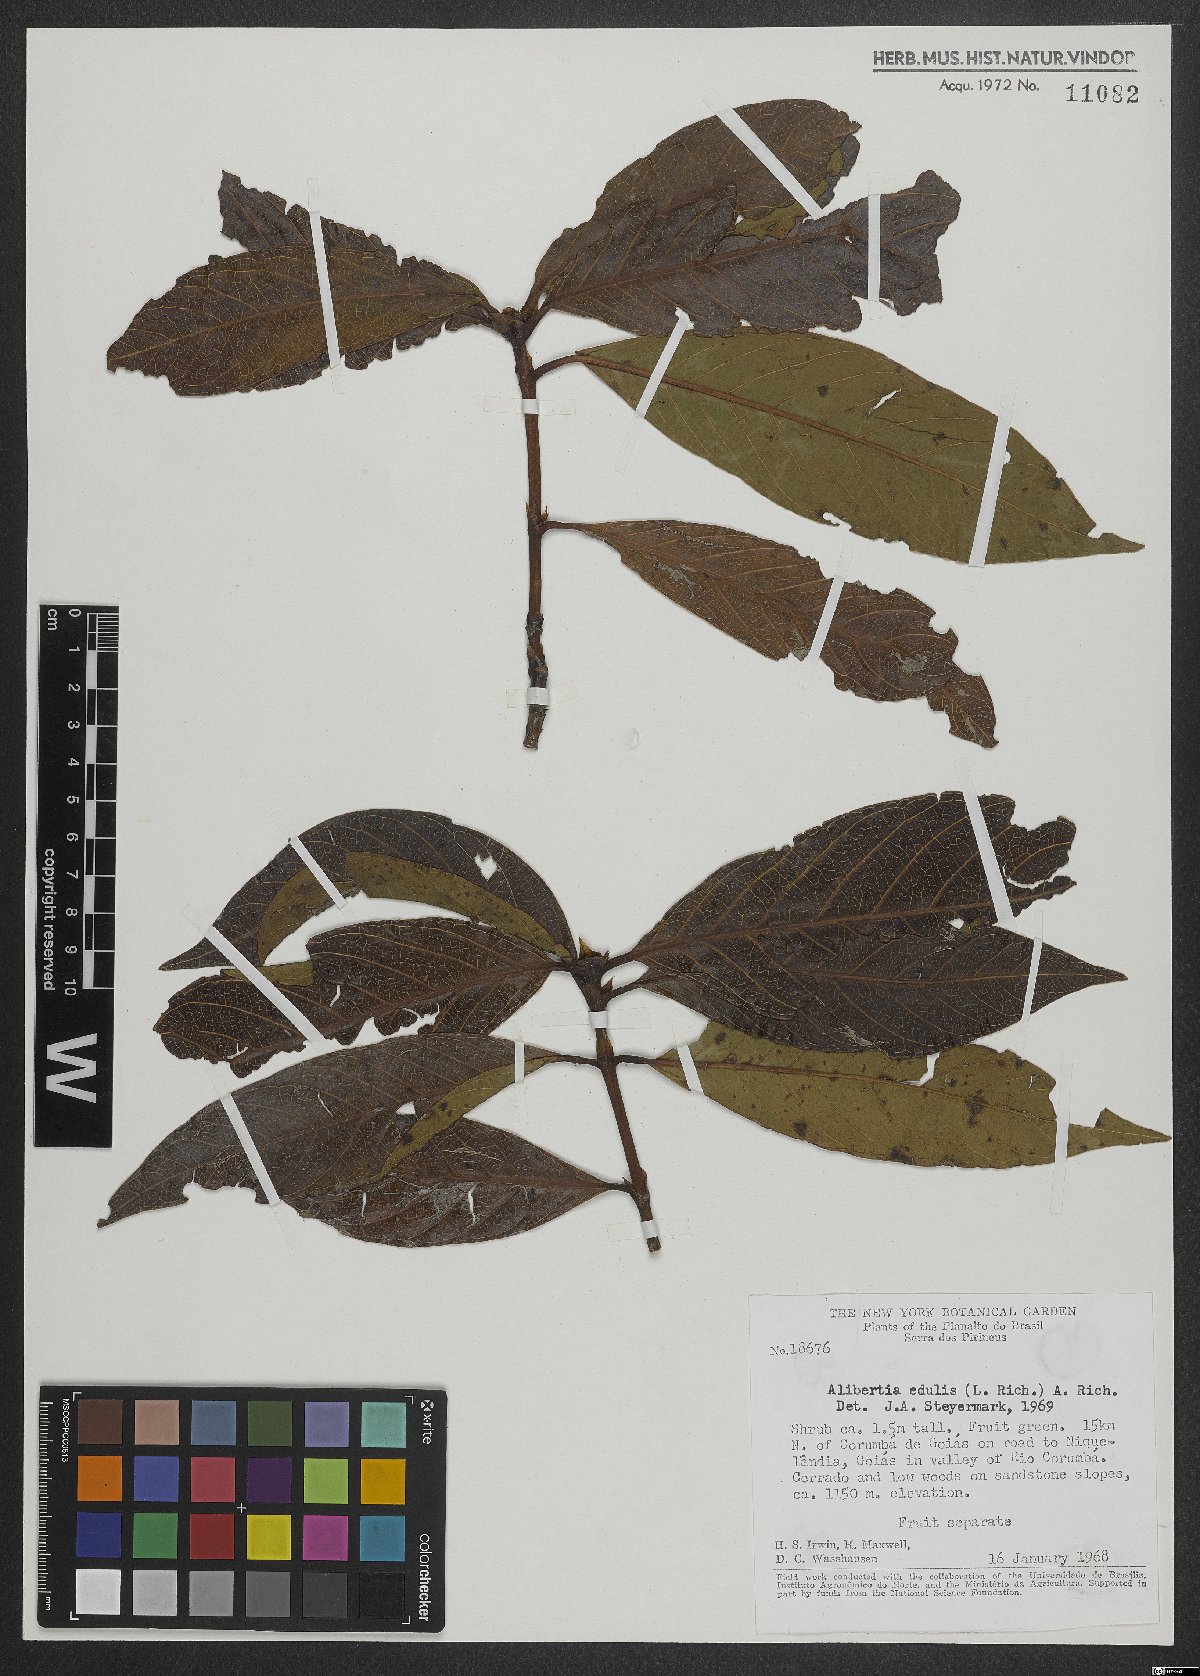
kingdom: Plantae
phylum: Tracheophyta
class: Magnoliopsida
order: Gentianales
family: Rubiaceae
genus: Alibertia
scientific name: Alibertia edulis
